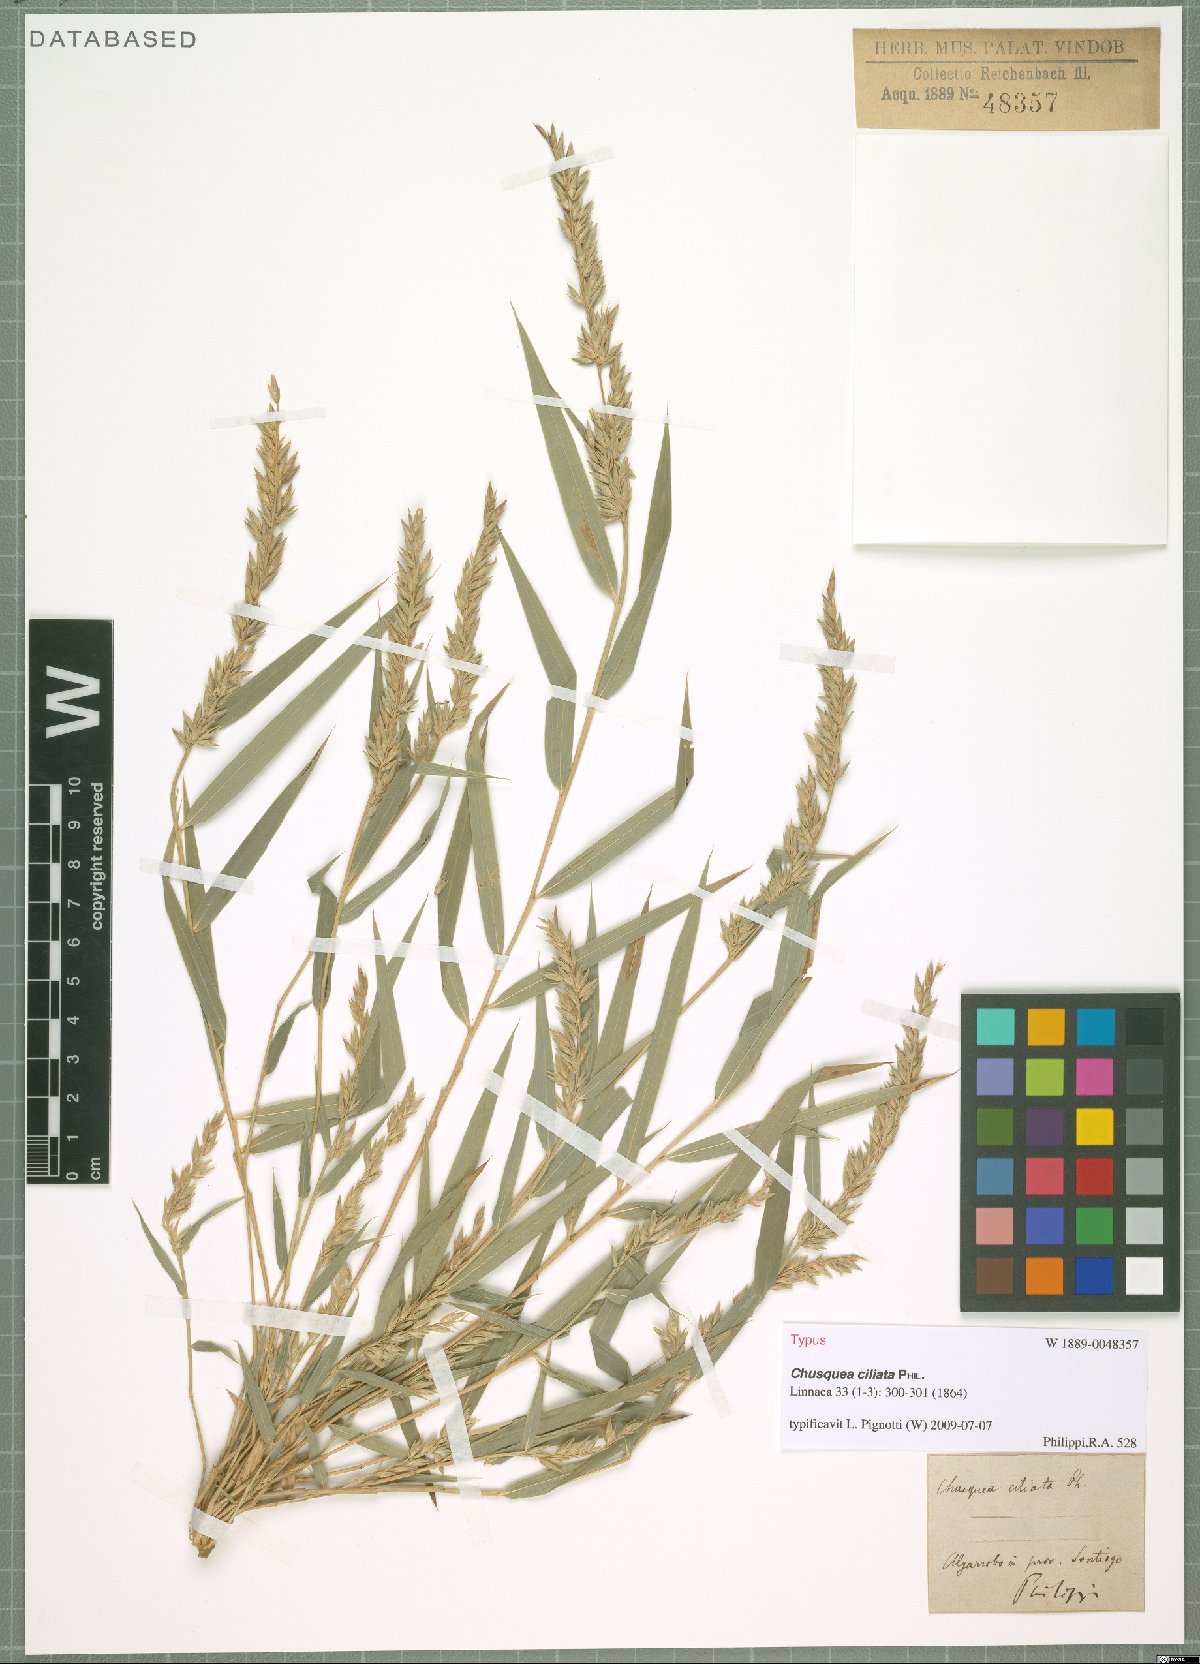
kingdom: Plantae
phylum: Tracheophyta
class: Liliopsida
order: Poales
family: Poaceae
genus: Chusquea
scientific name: Chusquea ciliata
